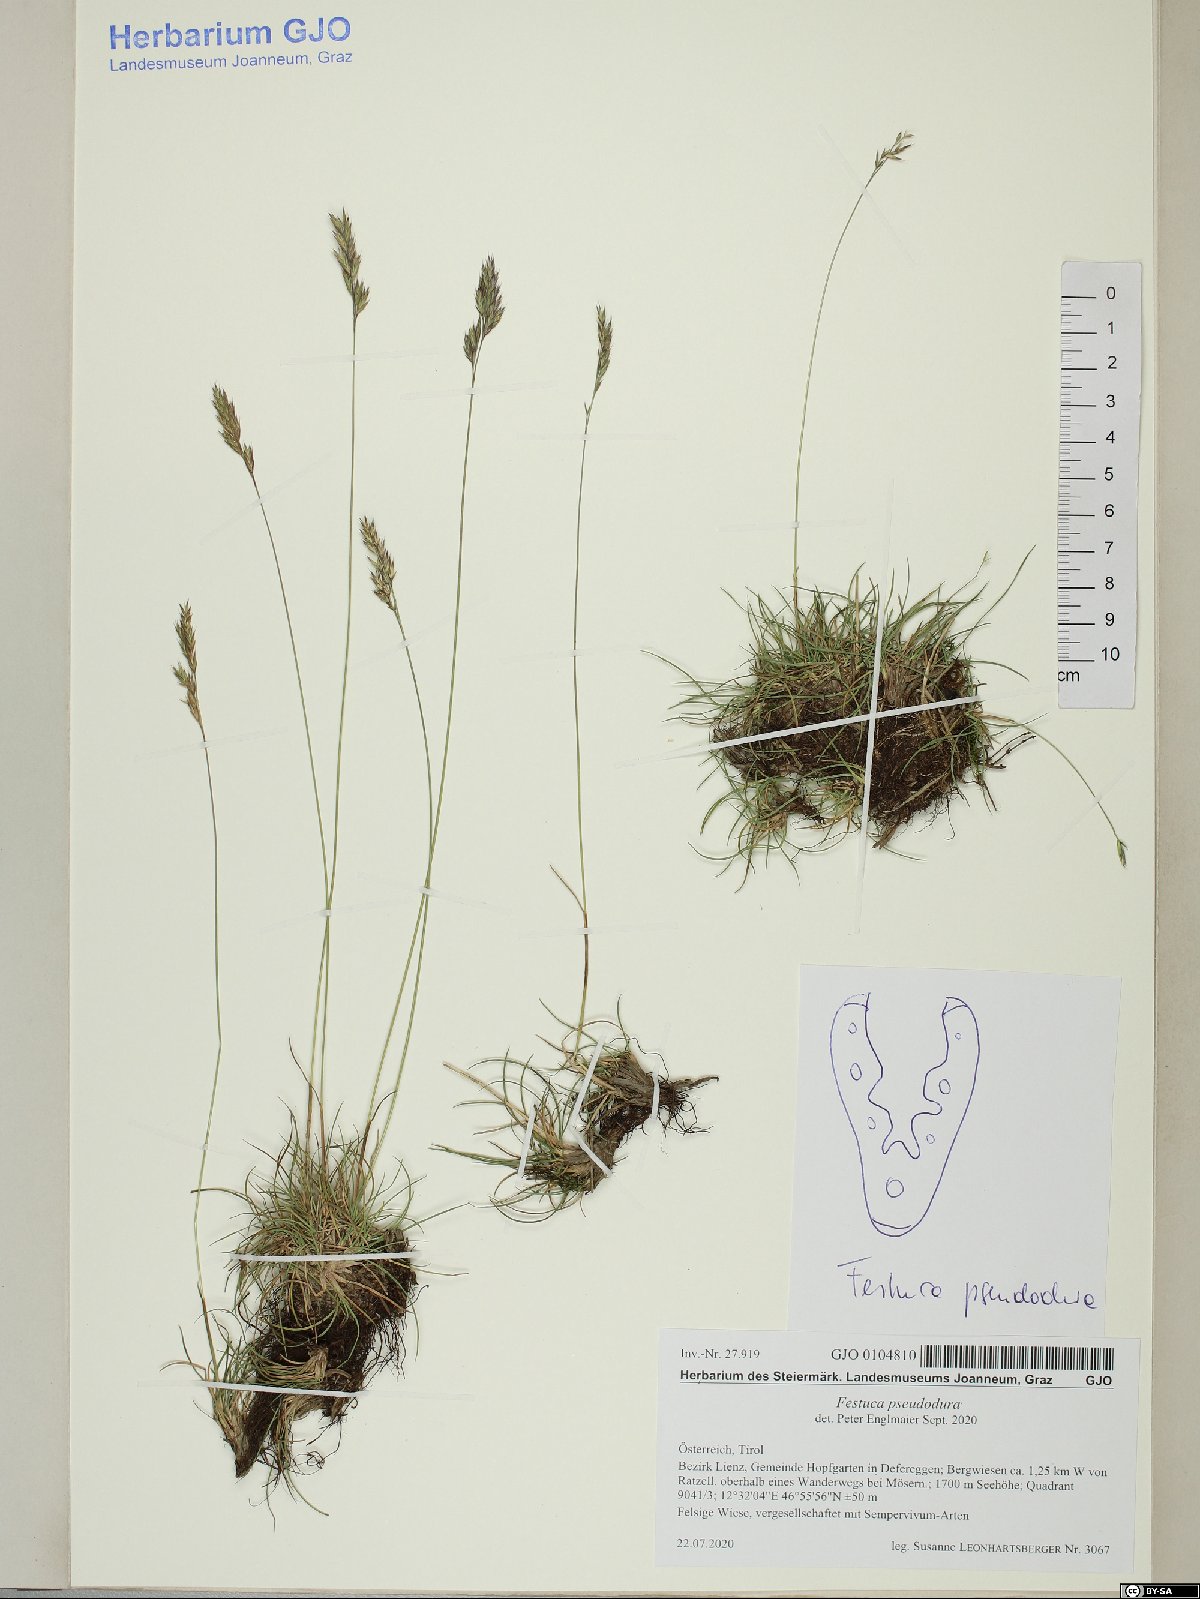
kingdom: Plantae
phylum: Tracheophyta
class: Liliopsida
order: Poales
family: Poaceae
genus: Festuca
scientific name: Festuca pseudodura
